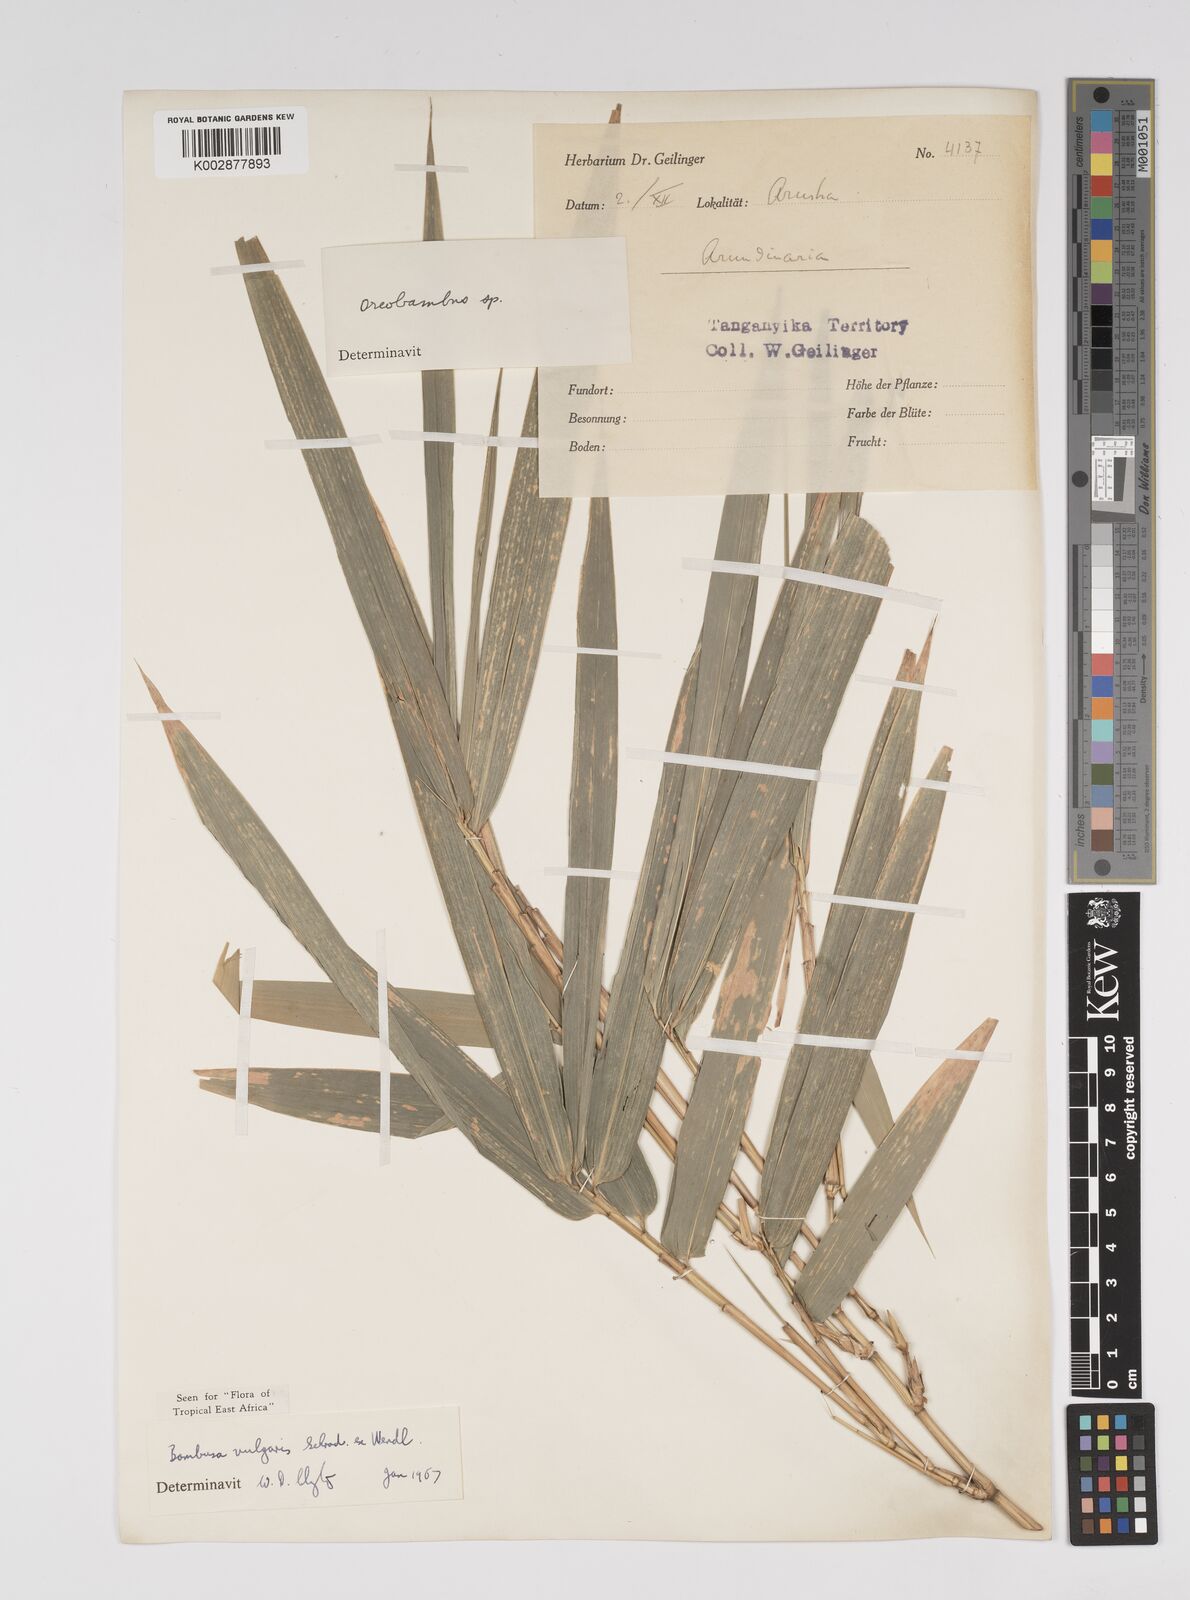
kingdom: Plantae
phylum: Tracheophyta
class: Liliopsida
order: Poales
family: Poaceae
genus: Bambusa
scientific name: Bambusa balcooa
